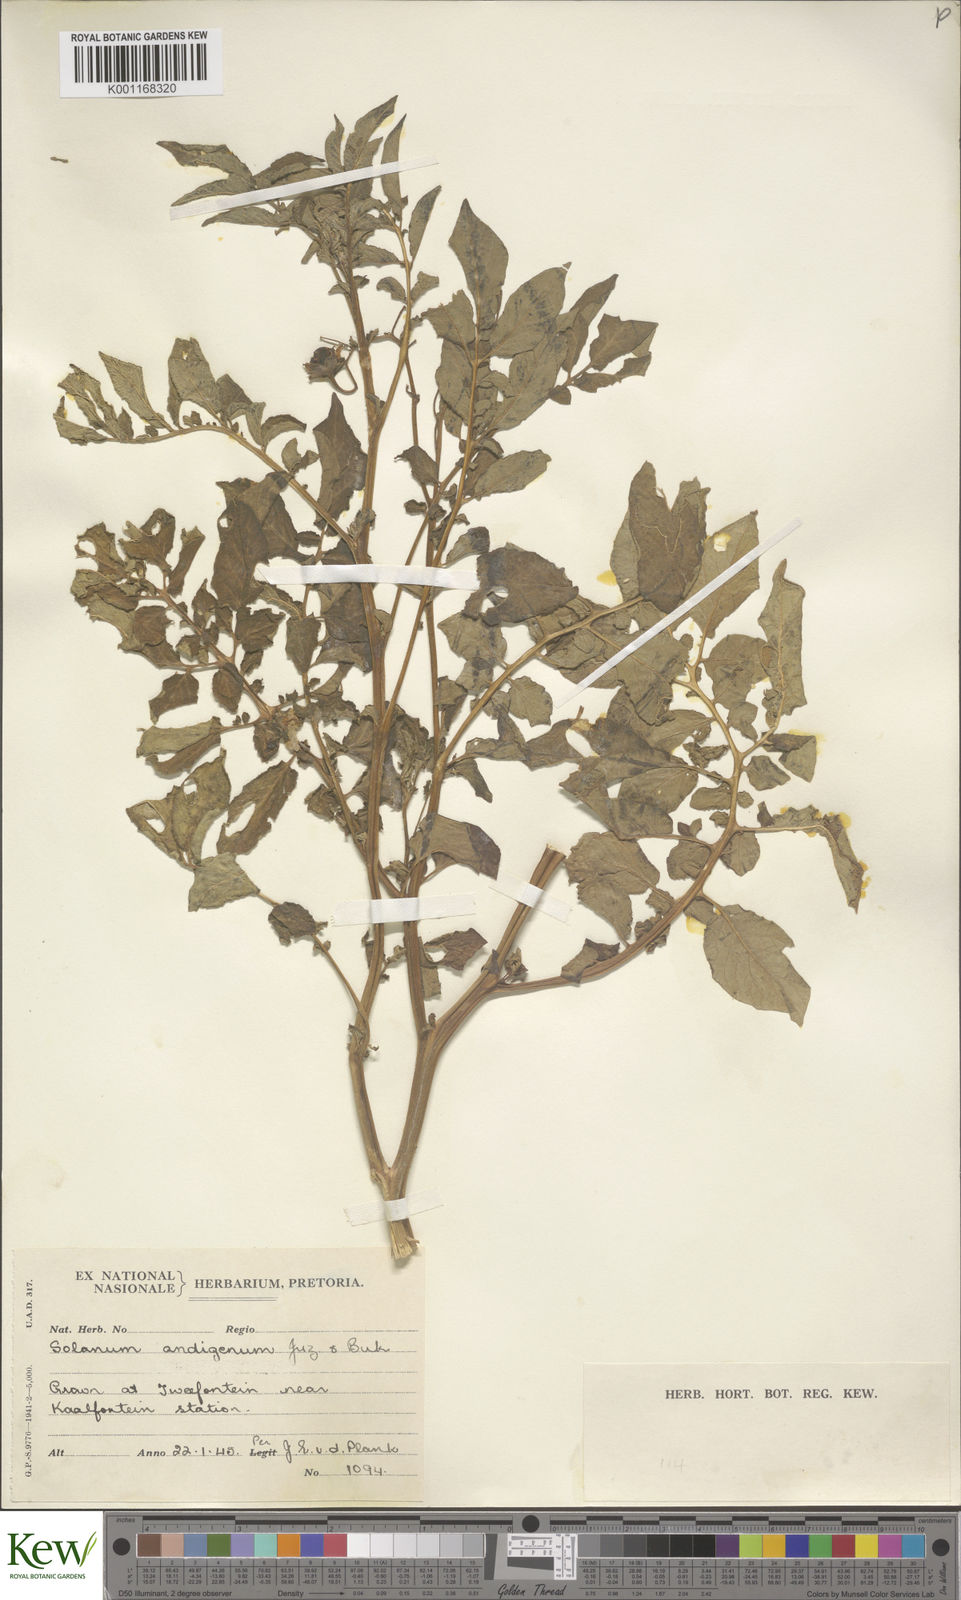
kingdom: Plantae
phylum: Tracheophyta
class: Magnoliopsida
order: Solanales
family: Solanaceae
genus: Solanum
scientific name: Solanum tuberosum
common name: Potato
